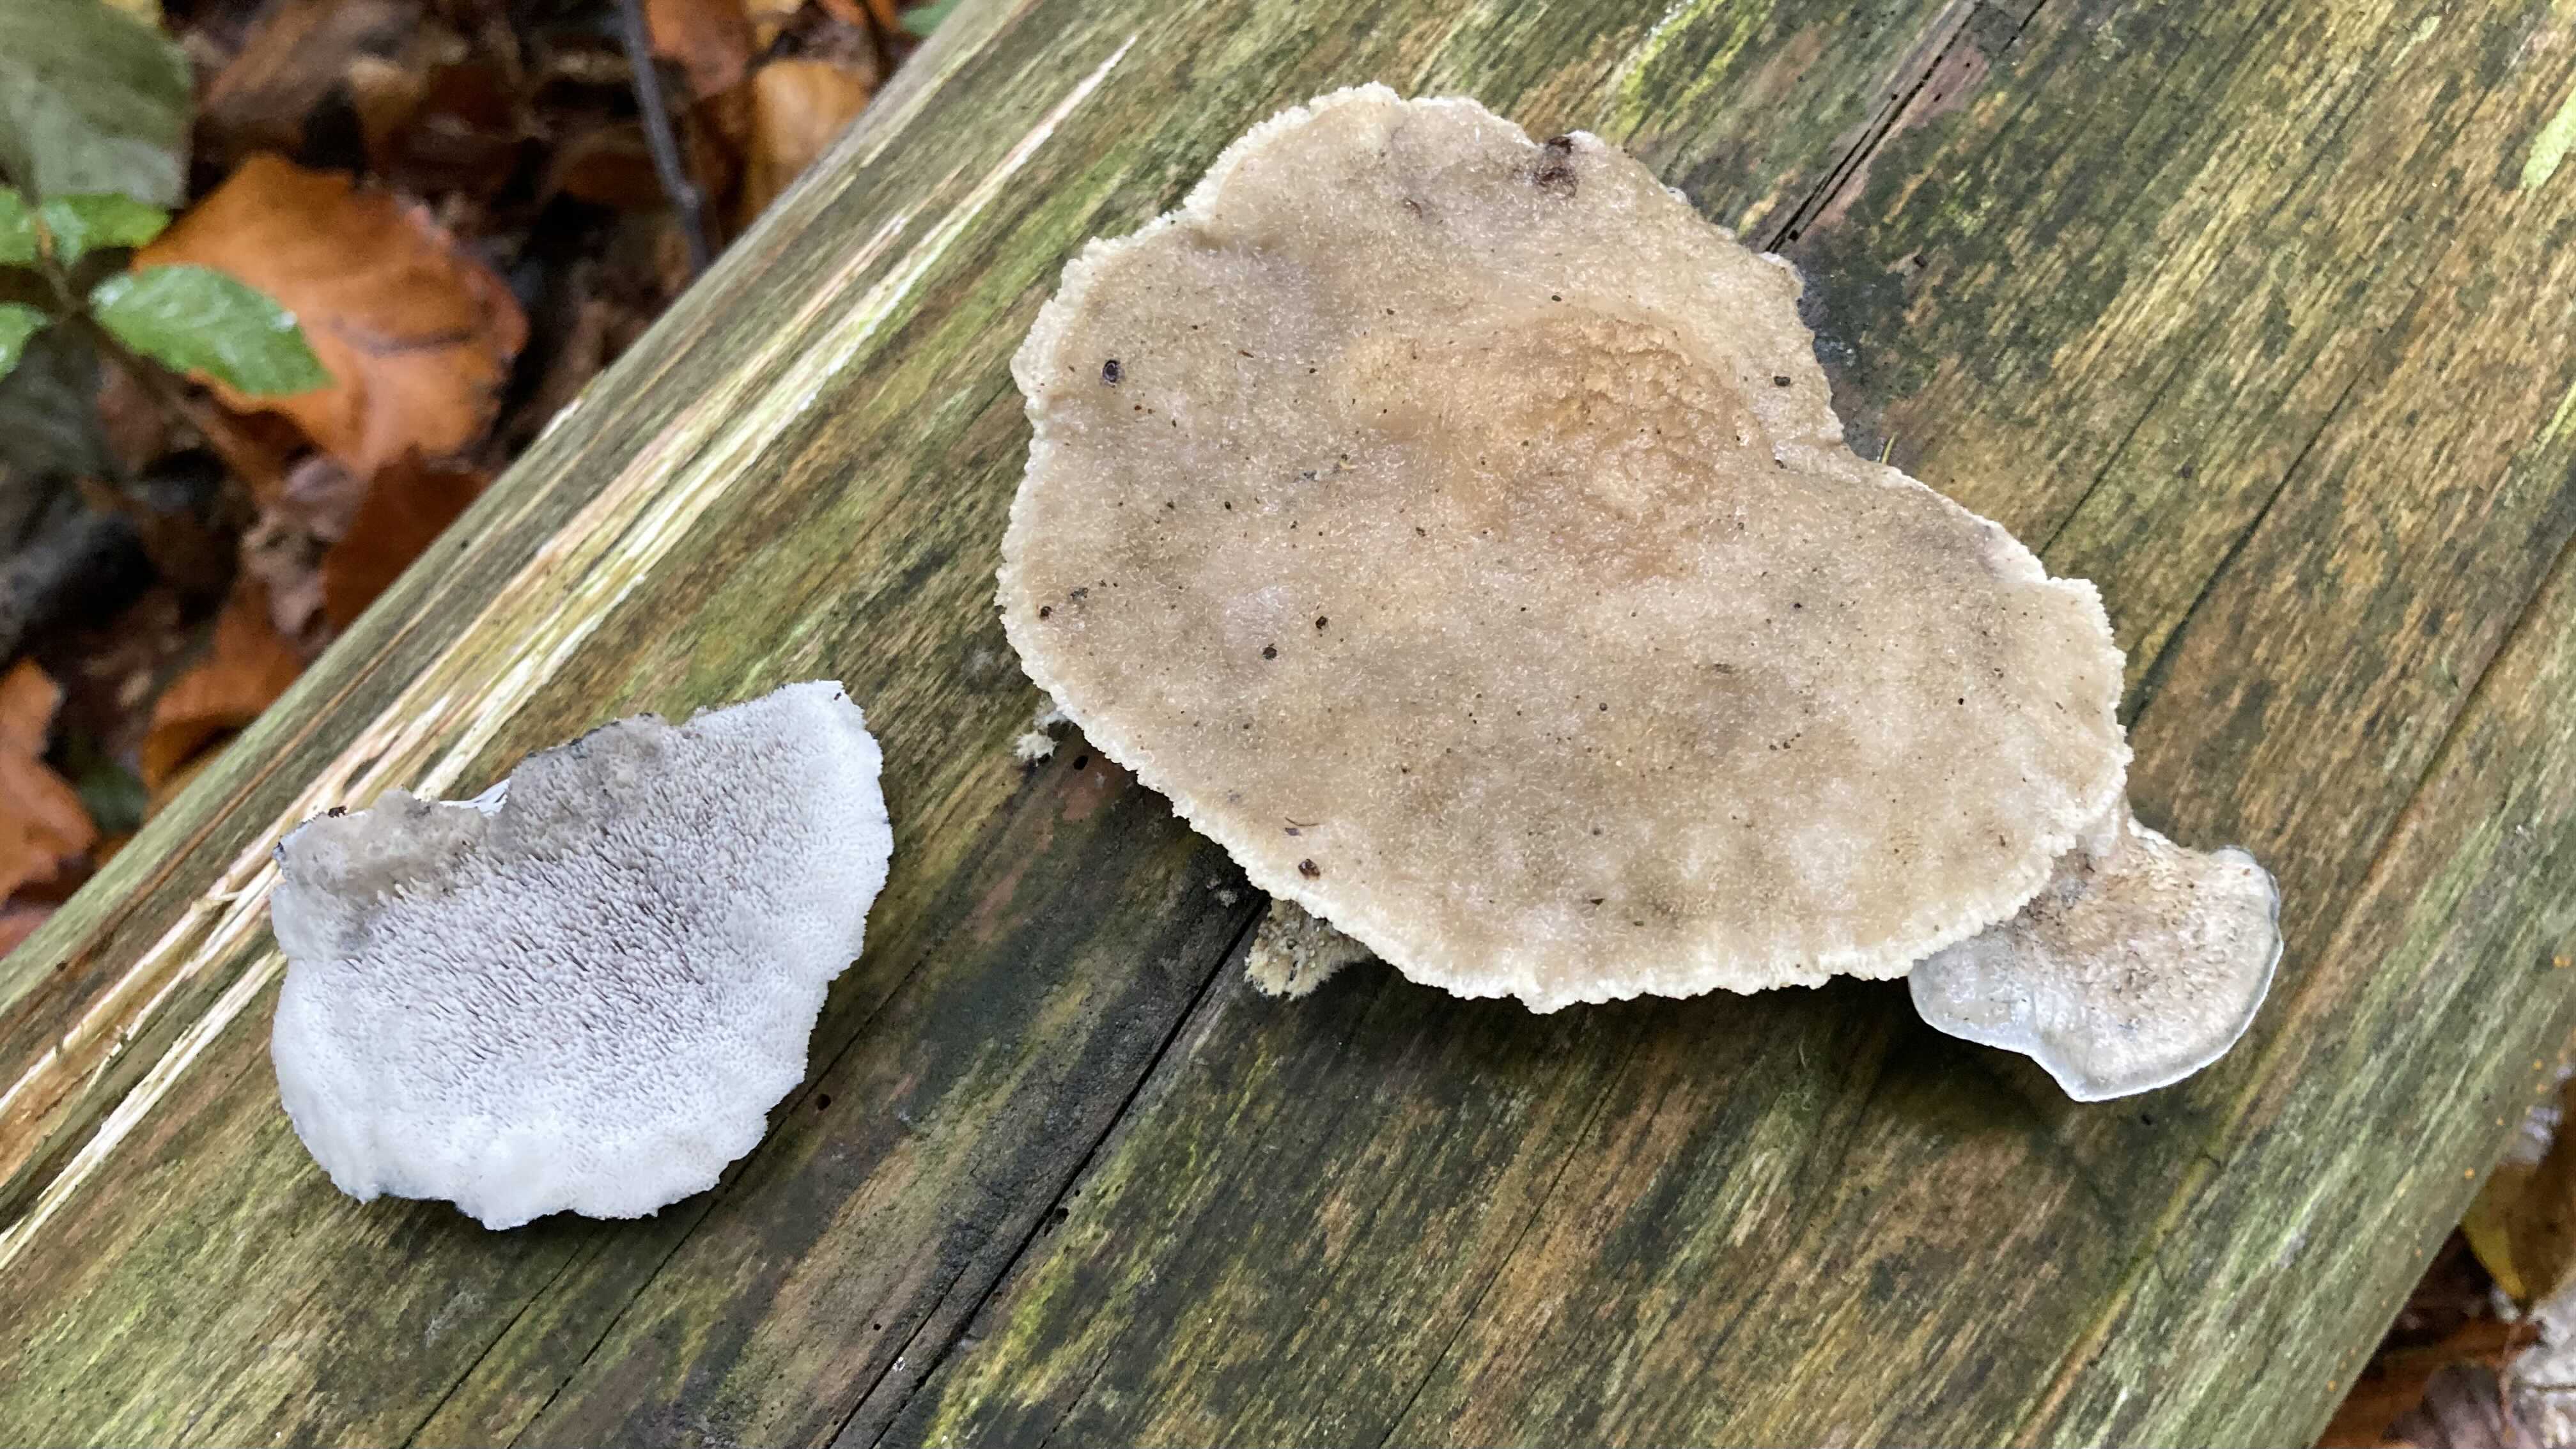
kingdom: Fungi
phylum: Basidiomycota
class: Agaricomycetes
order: Polyporales
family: Polyporaceae
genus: Cyanosporus
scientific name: Cyanosporus caesius
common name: blålig kødporesvamp
